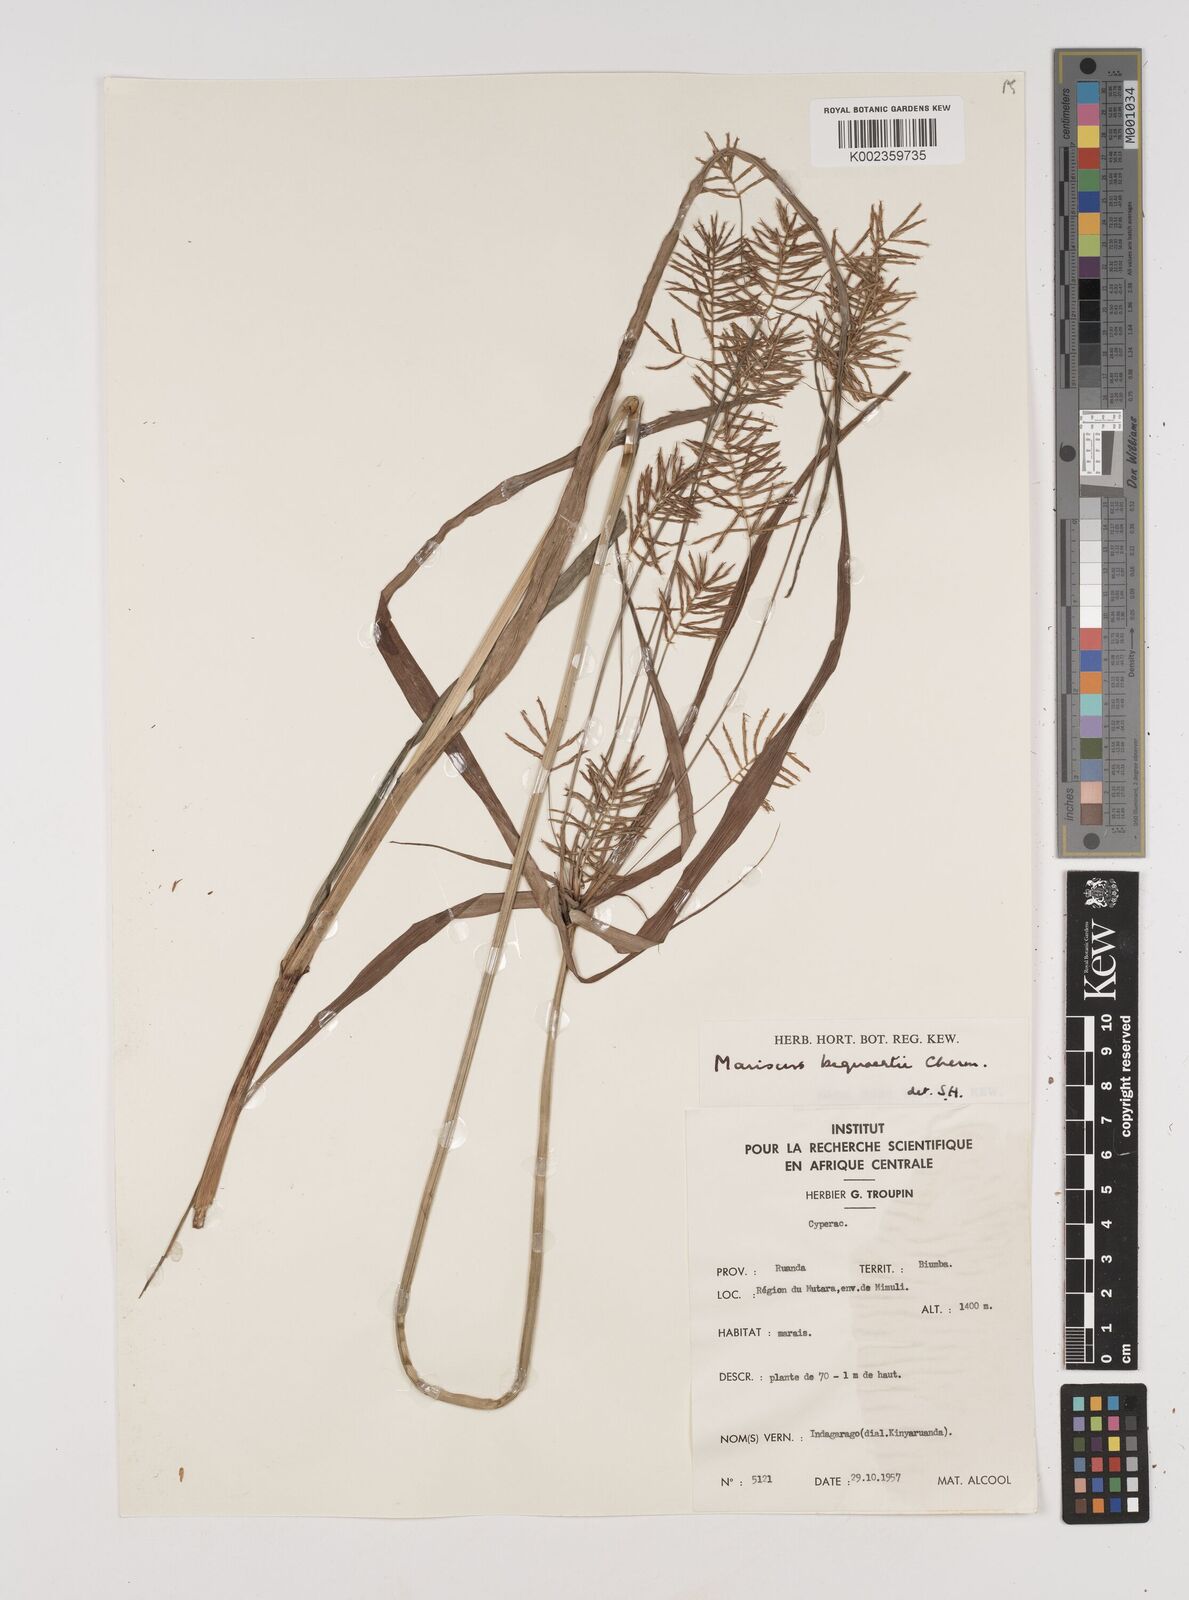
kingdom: Plantae
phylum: Tracheophyta
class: Liliopsida
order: Poales
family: Cyperaceae
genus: Cyperus
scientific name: Cyperus ferrugineoviridis
